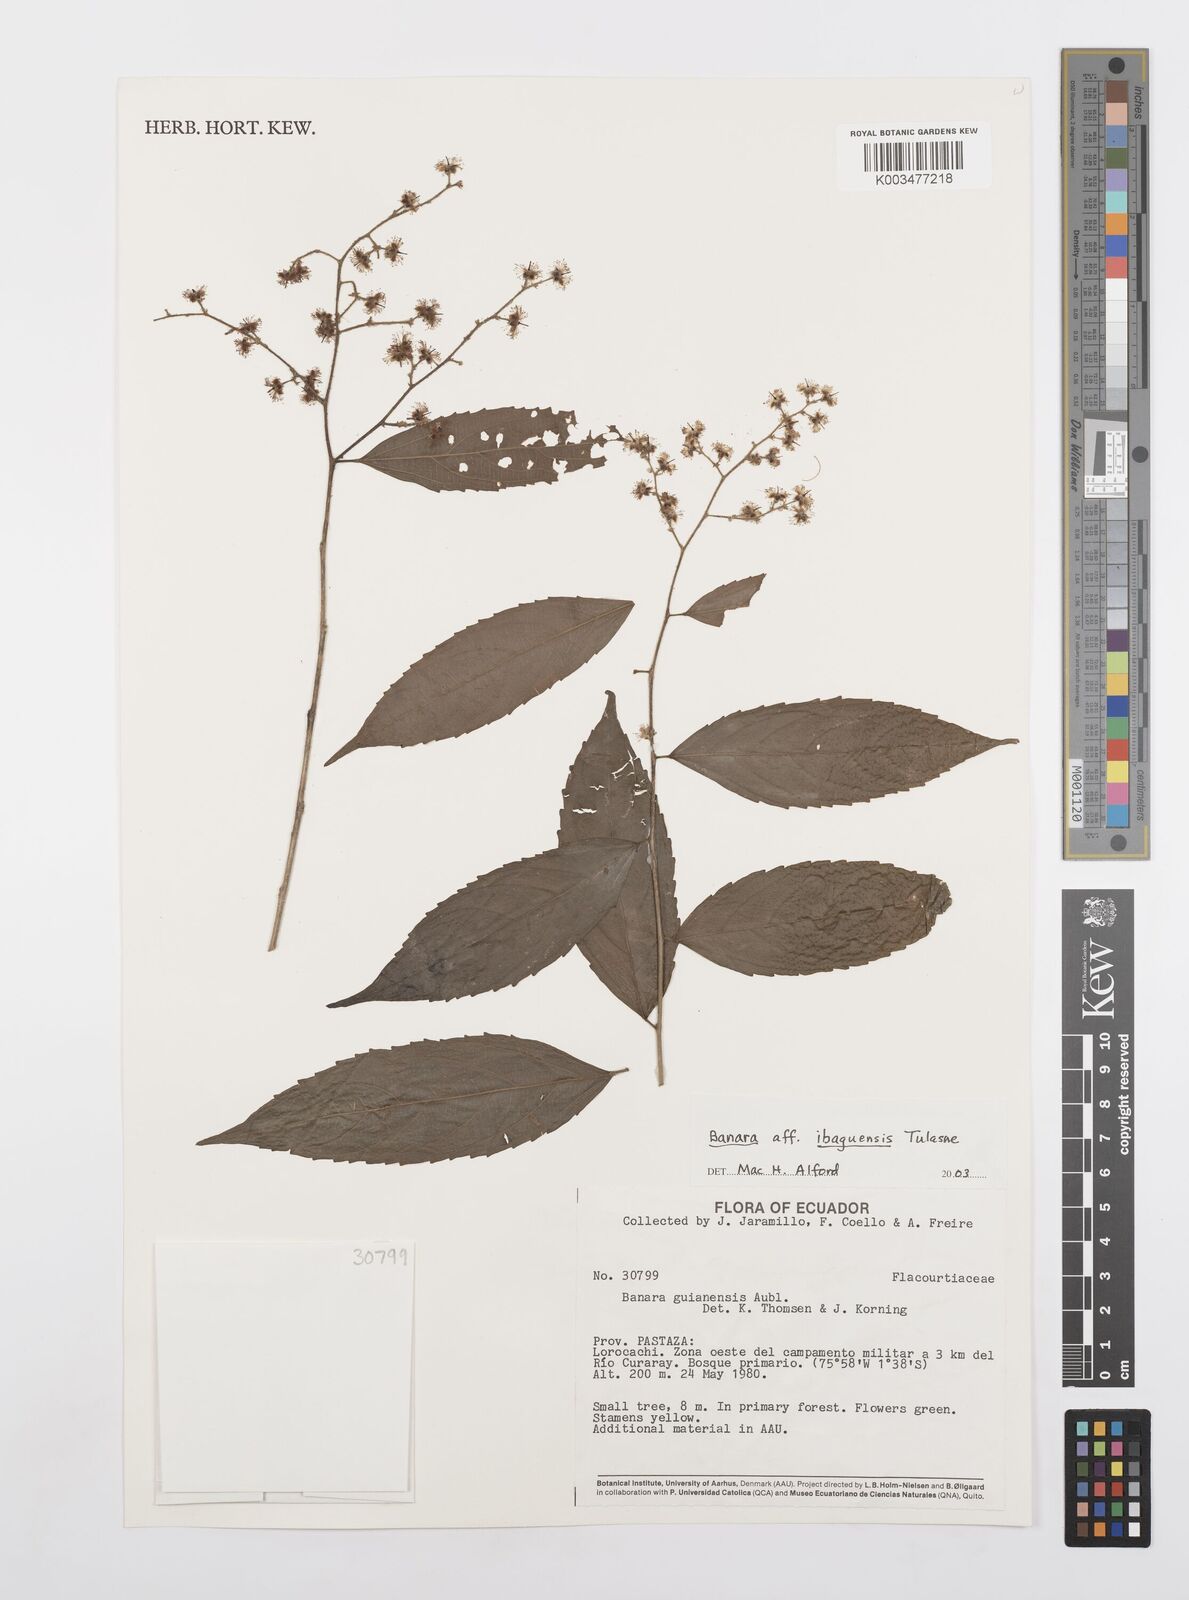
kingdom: Plantae
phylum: Tracheophyta
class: Magnoliopsida
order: Malpighiales
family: Salicaceae
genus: Banara
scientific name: Banara ibaguensis
